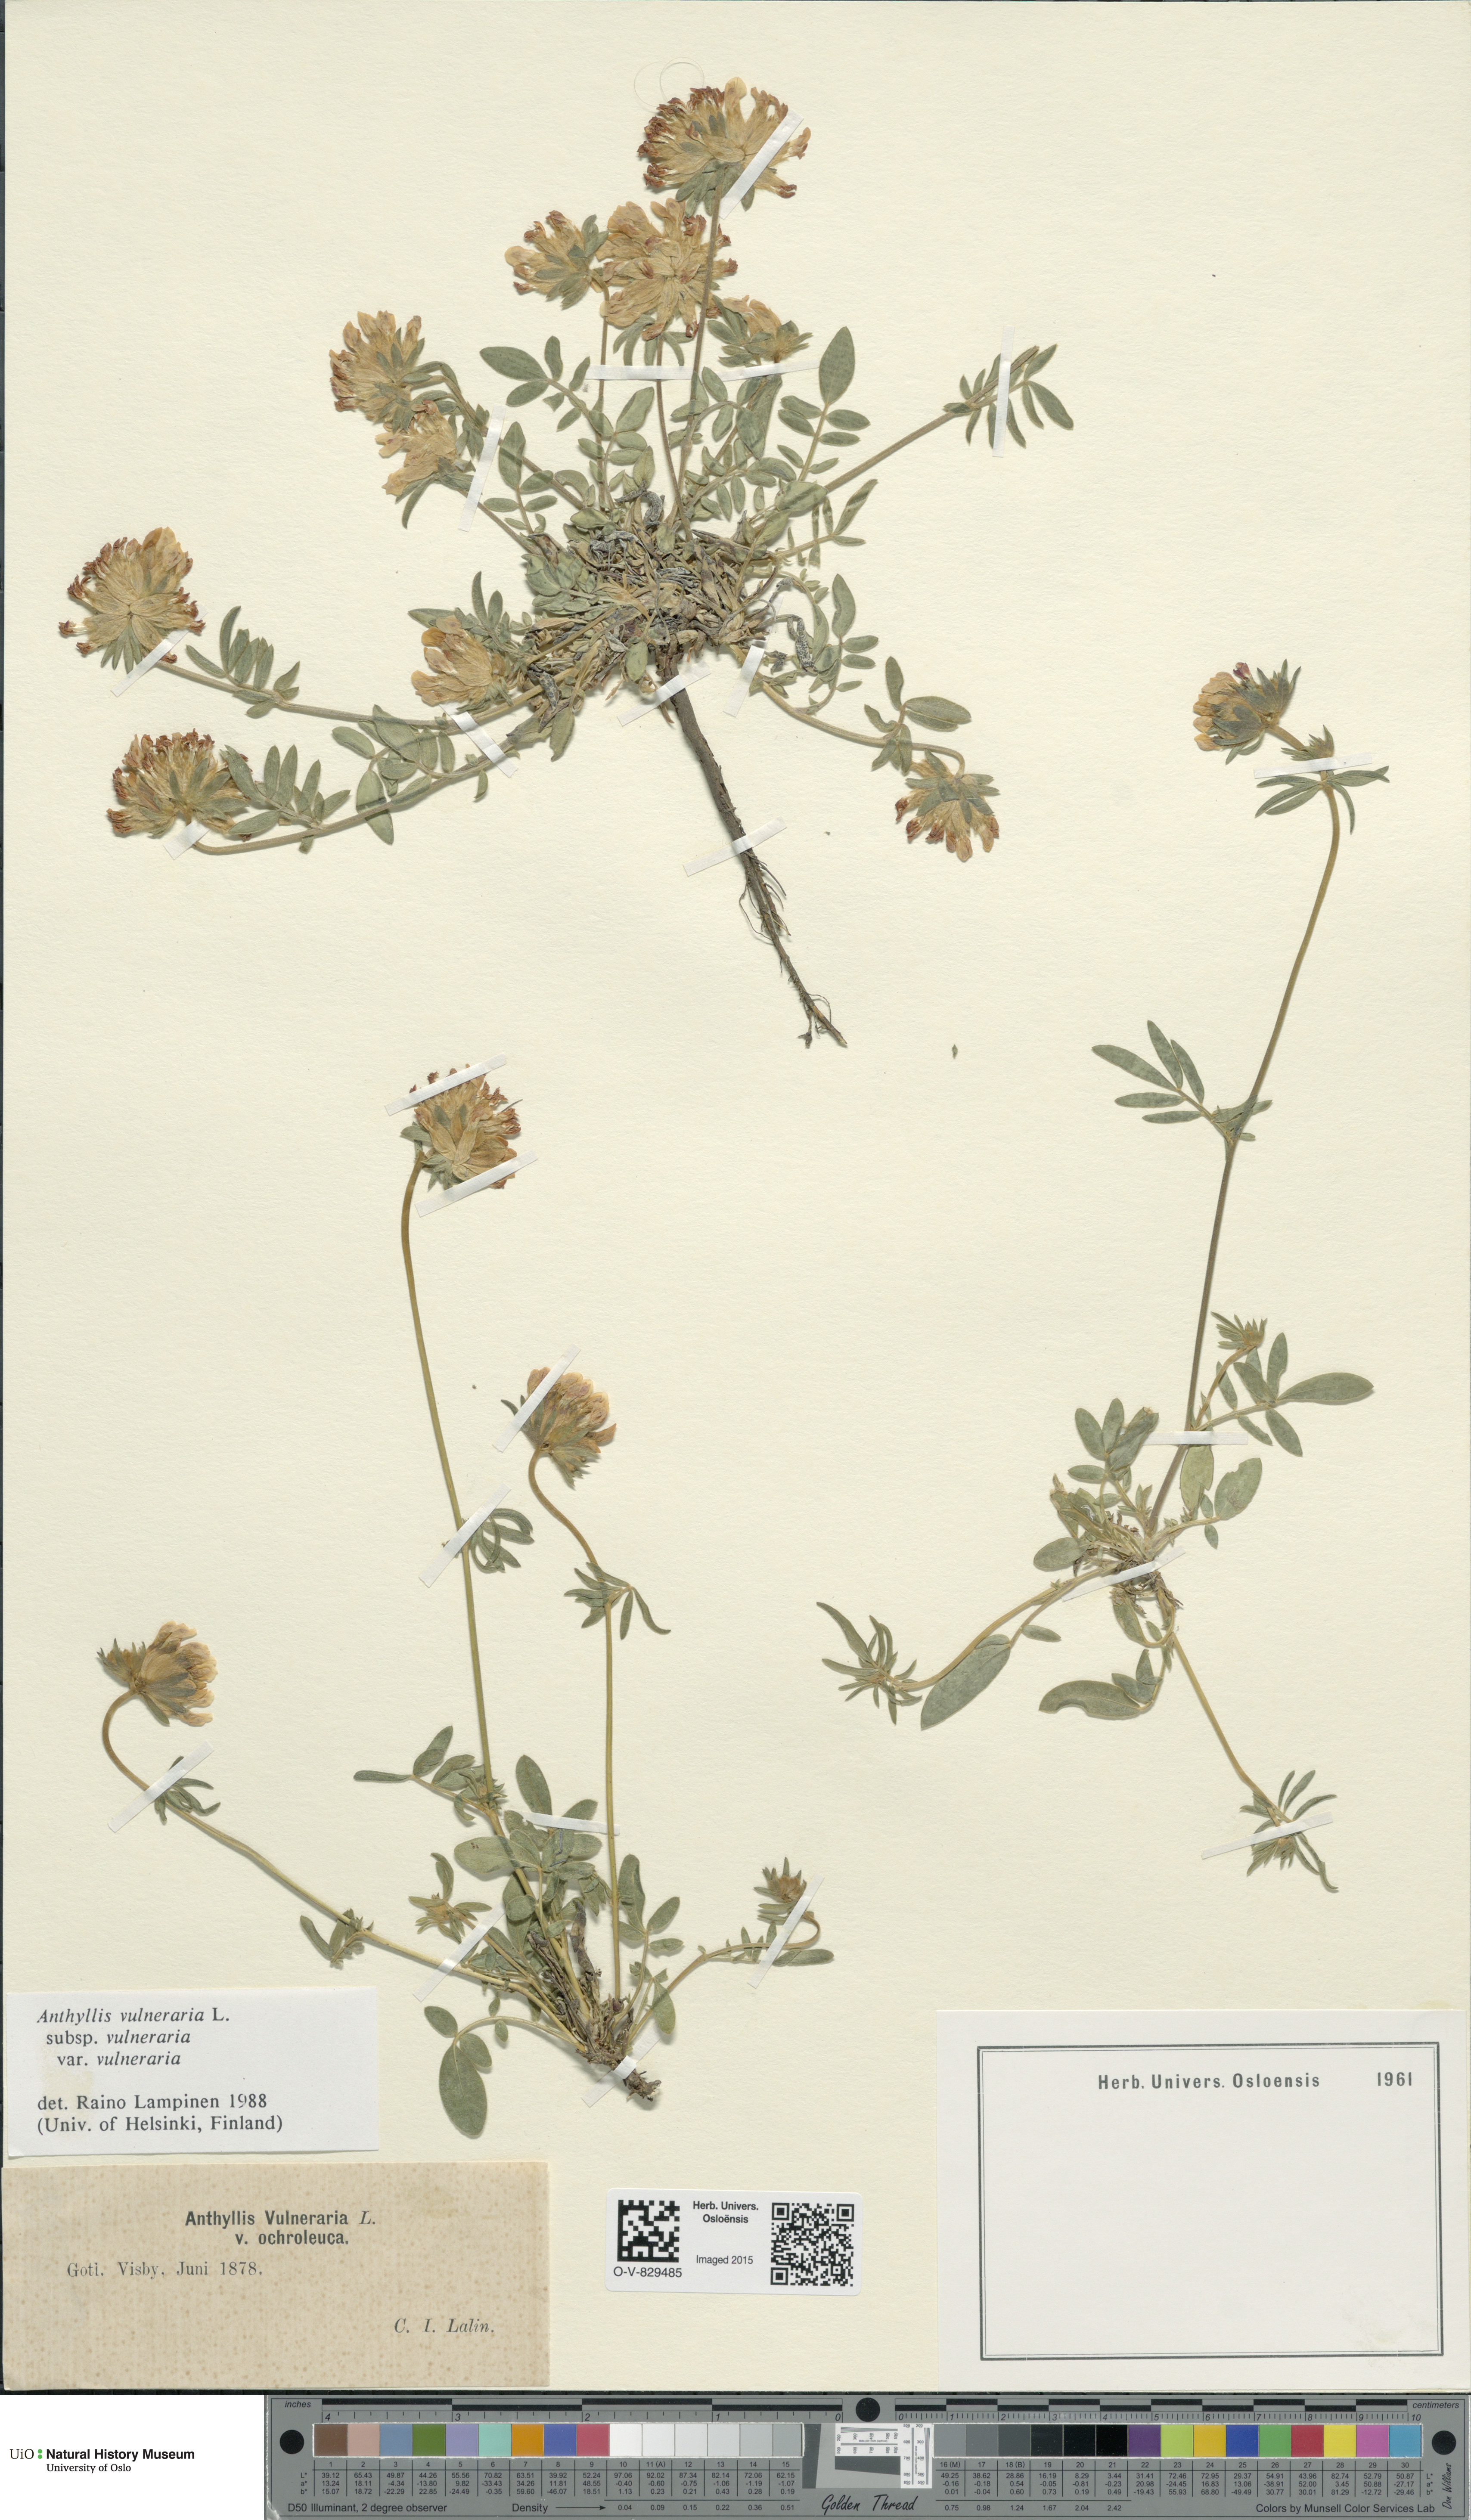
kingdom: Plantae
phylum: Tracheophyta
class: Magnoliopsida
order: Fabales
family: Fabaceae
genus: Anthyllis
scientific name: Anthyllis vulneraria
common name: Kidney vetch
